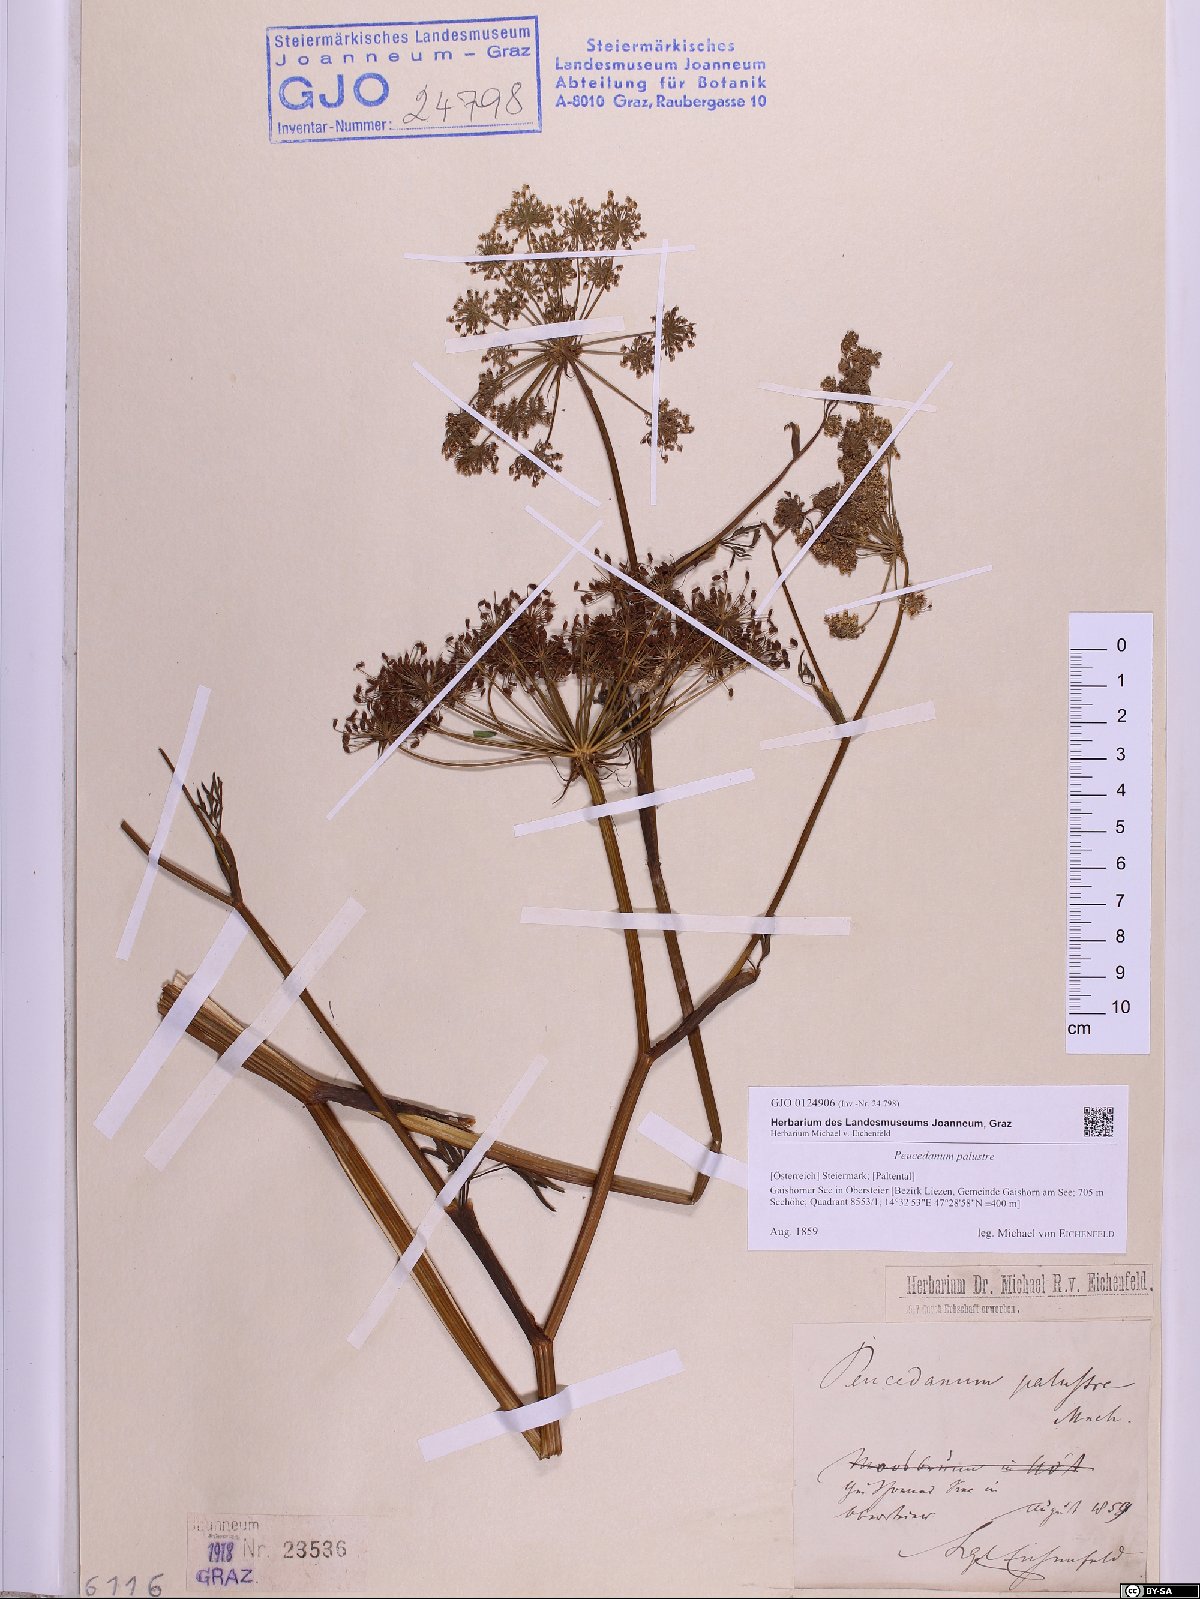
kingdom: Plantae
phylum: Tracheophyta
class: Magnoliopsida
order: Apiales
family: Apiaceae
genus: Thysselinum
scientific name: Thysselinum palustre
